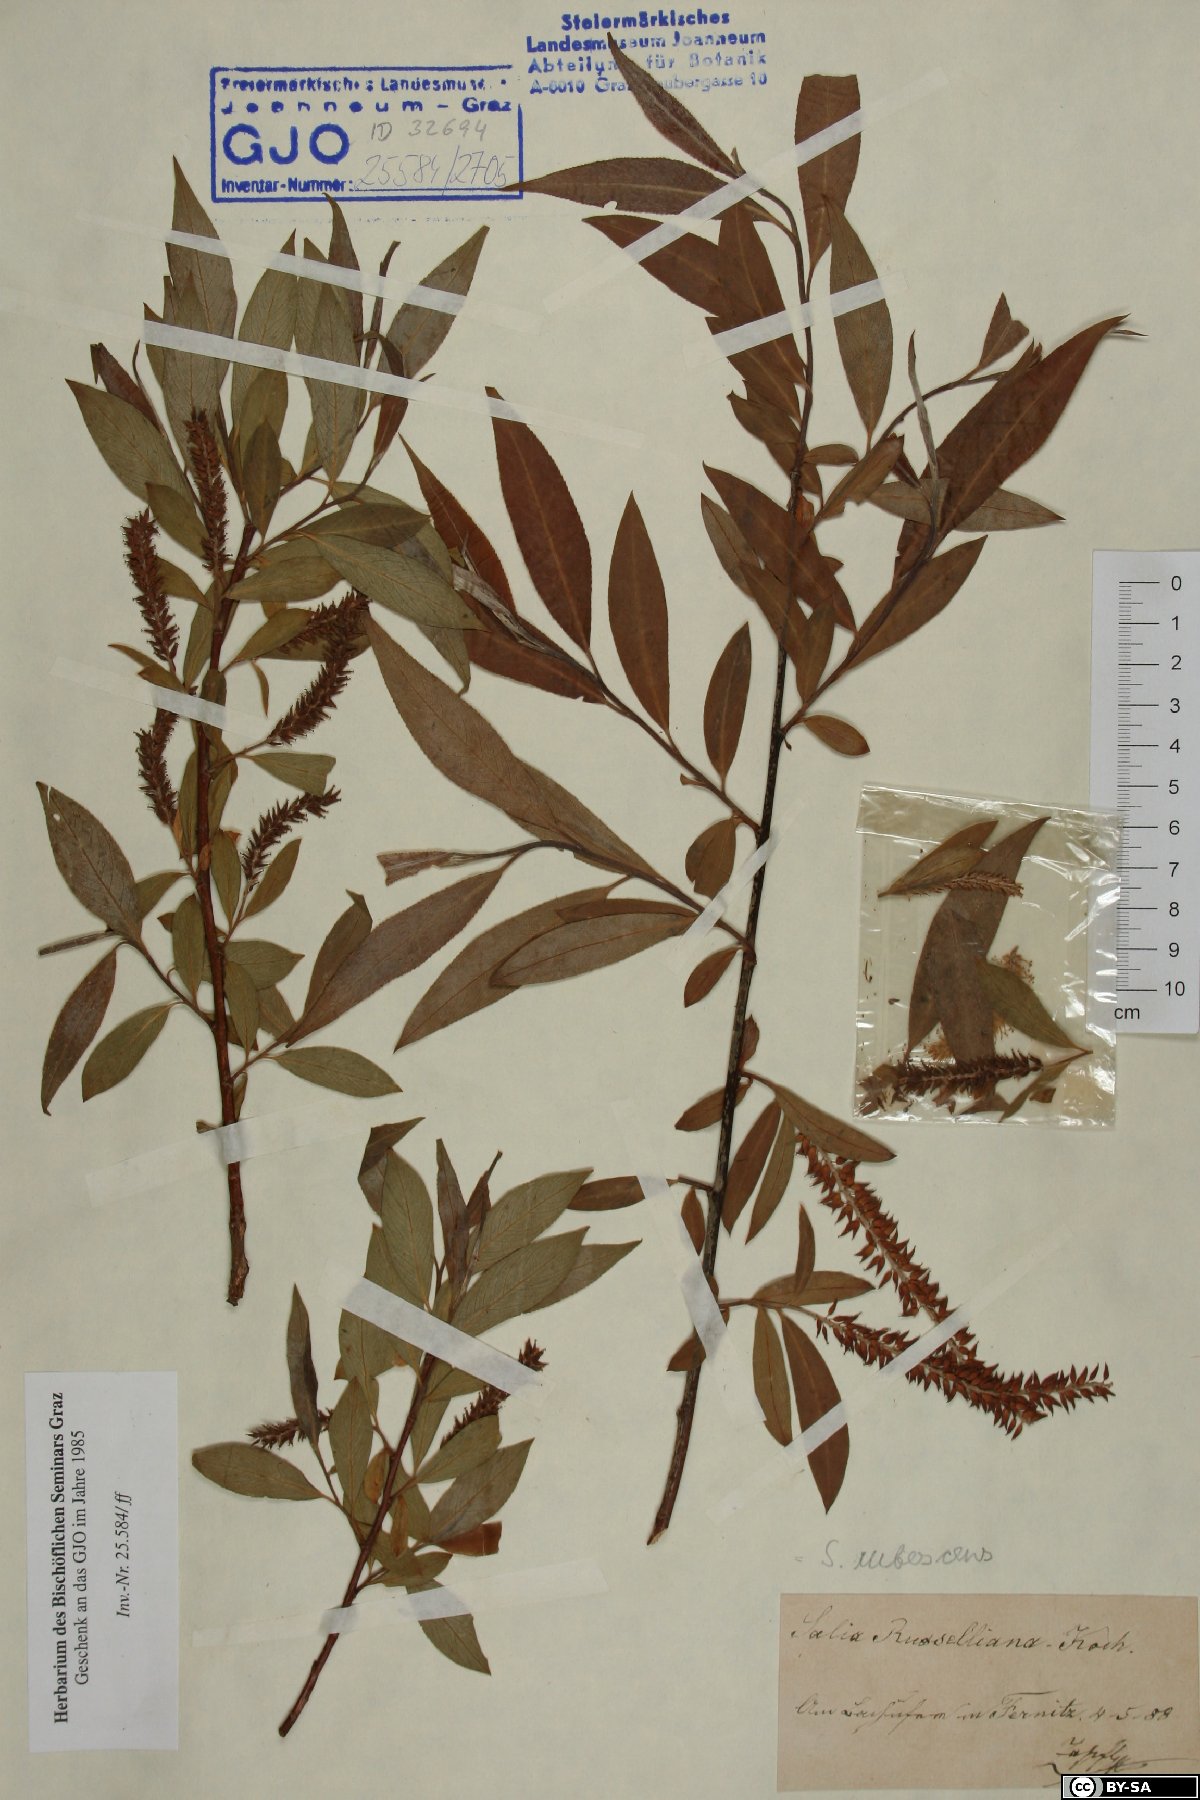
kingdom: Plantae
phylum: Tracheophyta
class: Magnoliopsida
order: Malpighiales
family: Salicaceae
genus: Salix
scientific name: Salix rubens
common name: Hybrid crack willow
